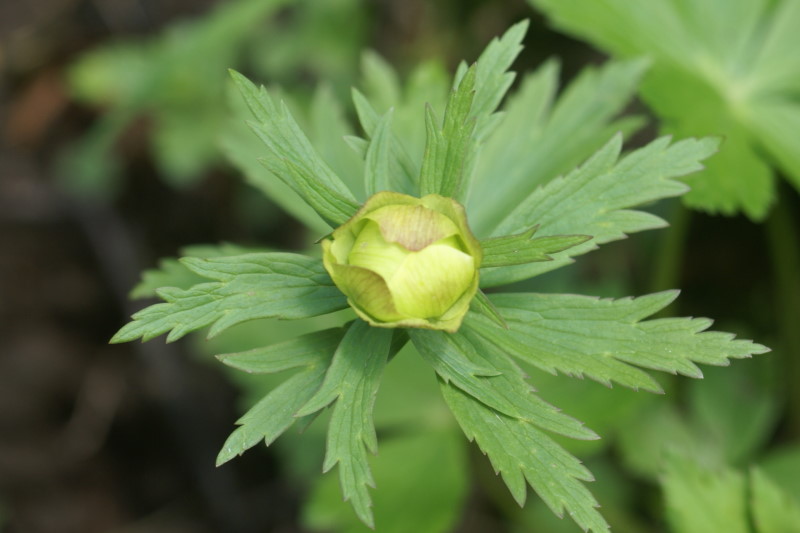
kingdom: Plantae
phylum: Tracheophyta
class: Magnoliopsida
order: Ranunculales
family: Ranunculaceae
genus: Trollius
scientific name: Trollius europaeus
